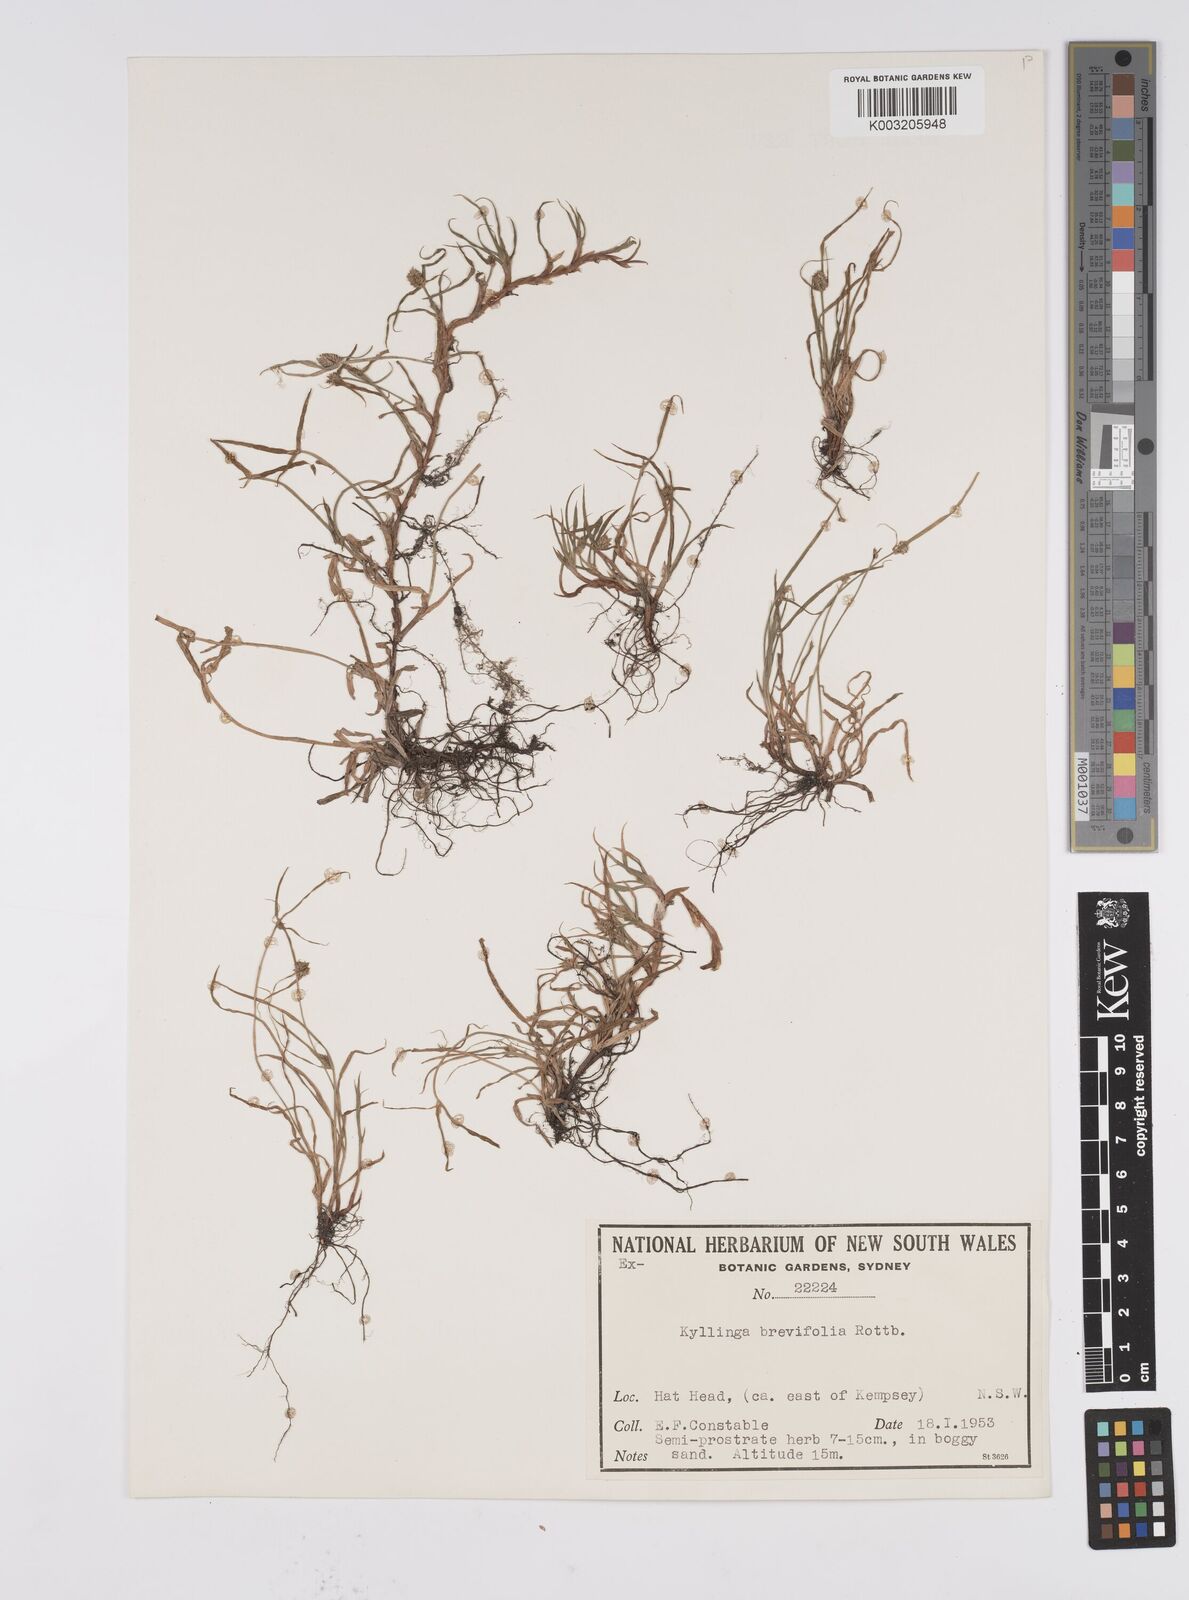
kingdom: Plantae
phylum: Tracheophyta
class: Liliopsida
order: Poales
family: Cyperaceae
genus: Cyperus
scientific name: Cyperus brevifolius
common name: Globe kyllinga
